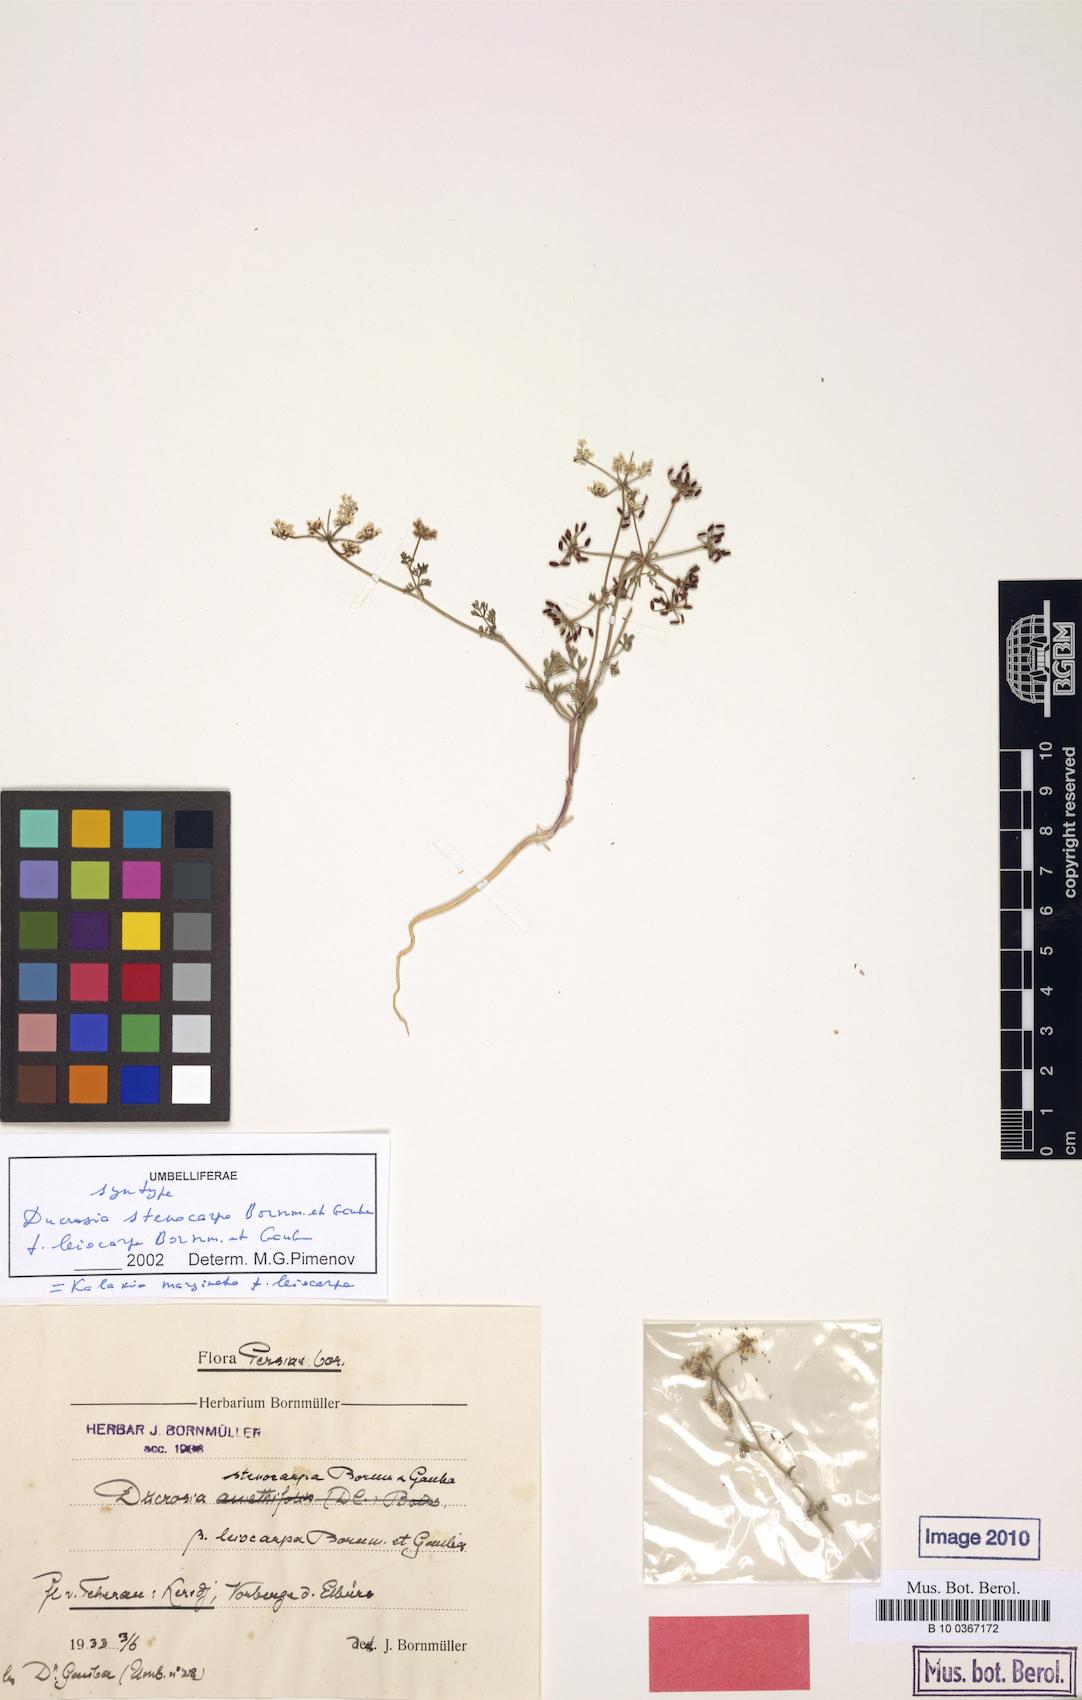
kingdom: Plantae
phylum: Tracheophyta
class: Magnoliopsida
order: Apiales
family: Apiaceae
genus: Kalakia
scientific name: Kalakia marginata
